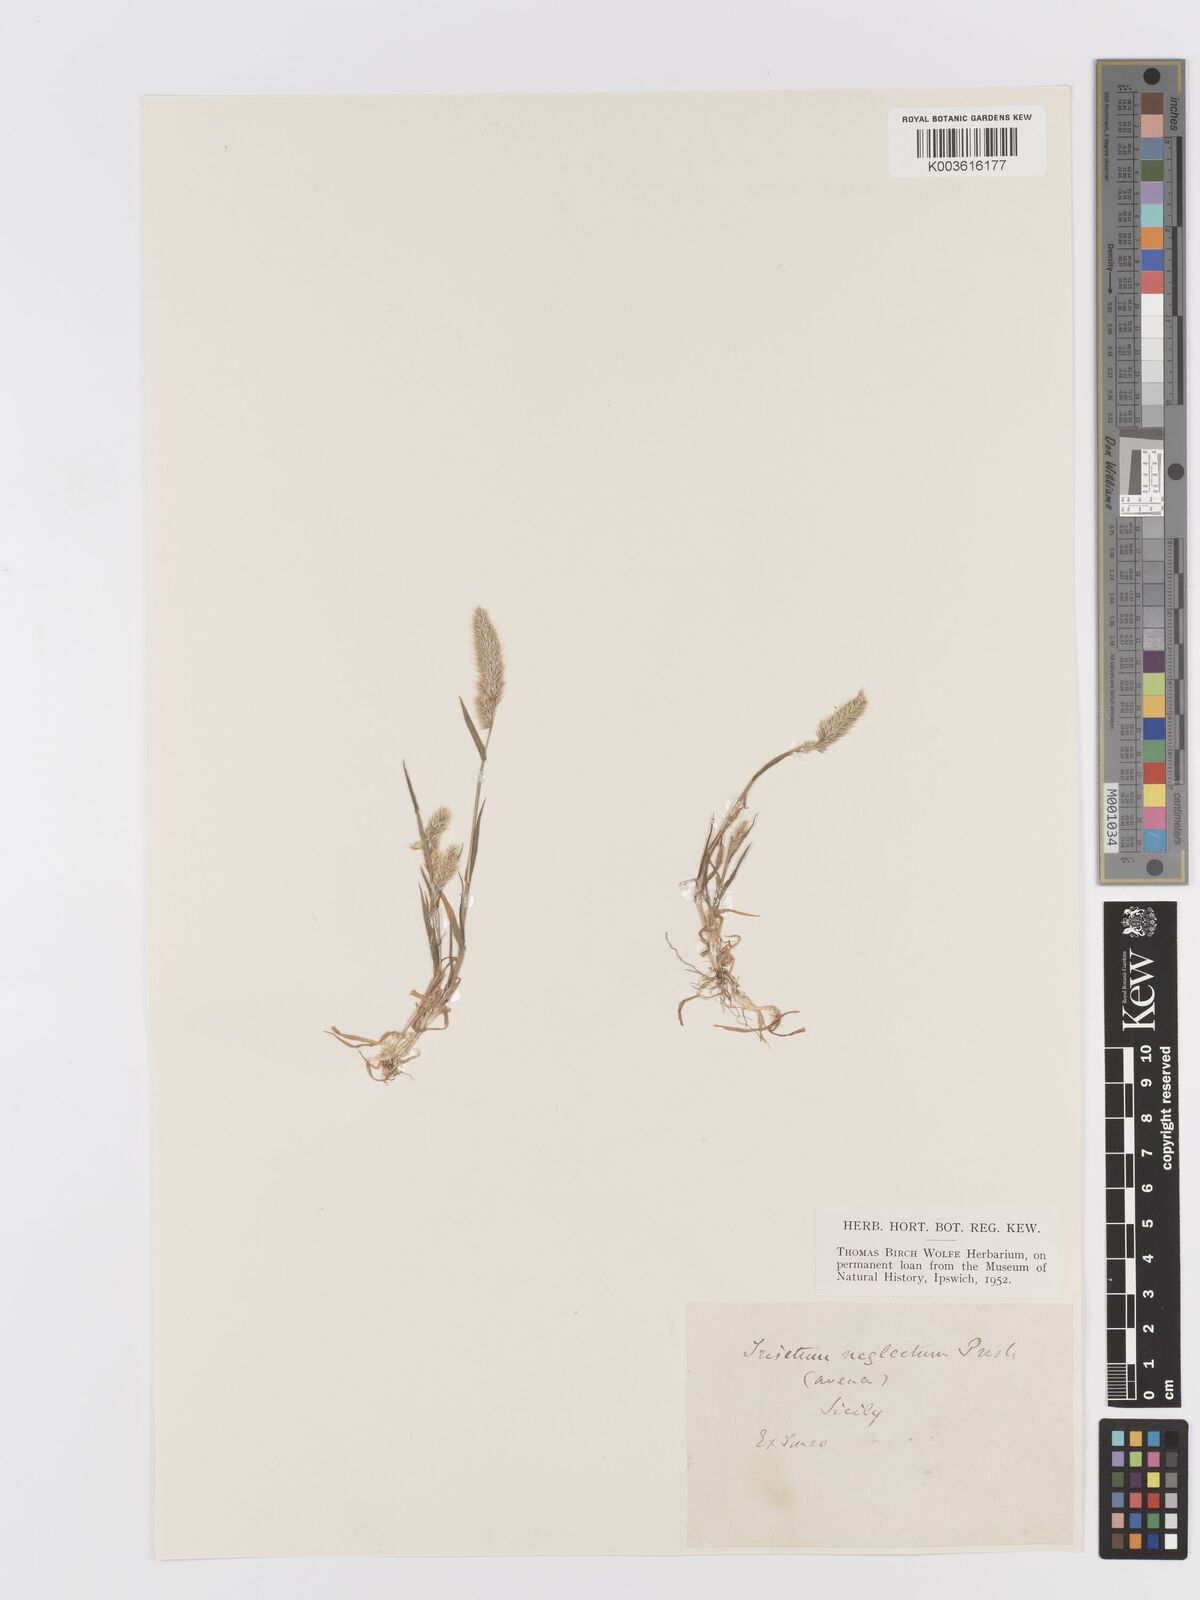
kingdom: Plantae
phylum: Tracheophyta
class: Liliopsida
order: Poales
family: Poaceae
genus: Trisetaria
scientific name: Trisetaria panicea
